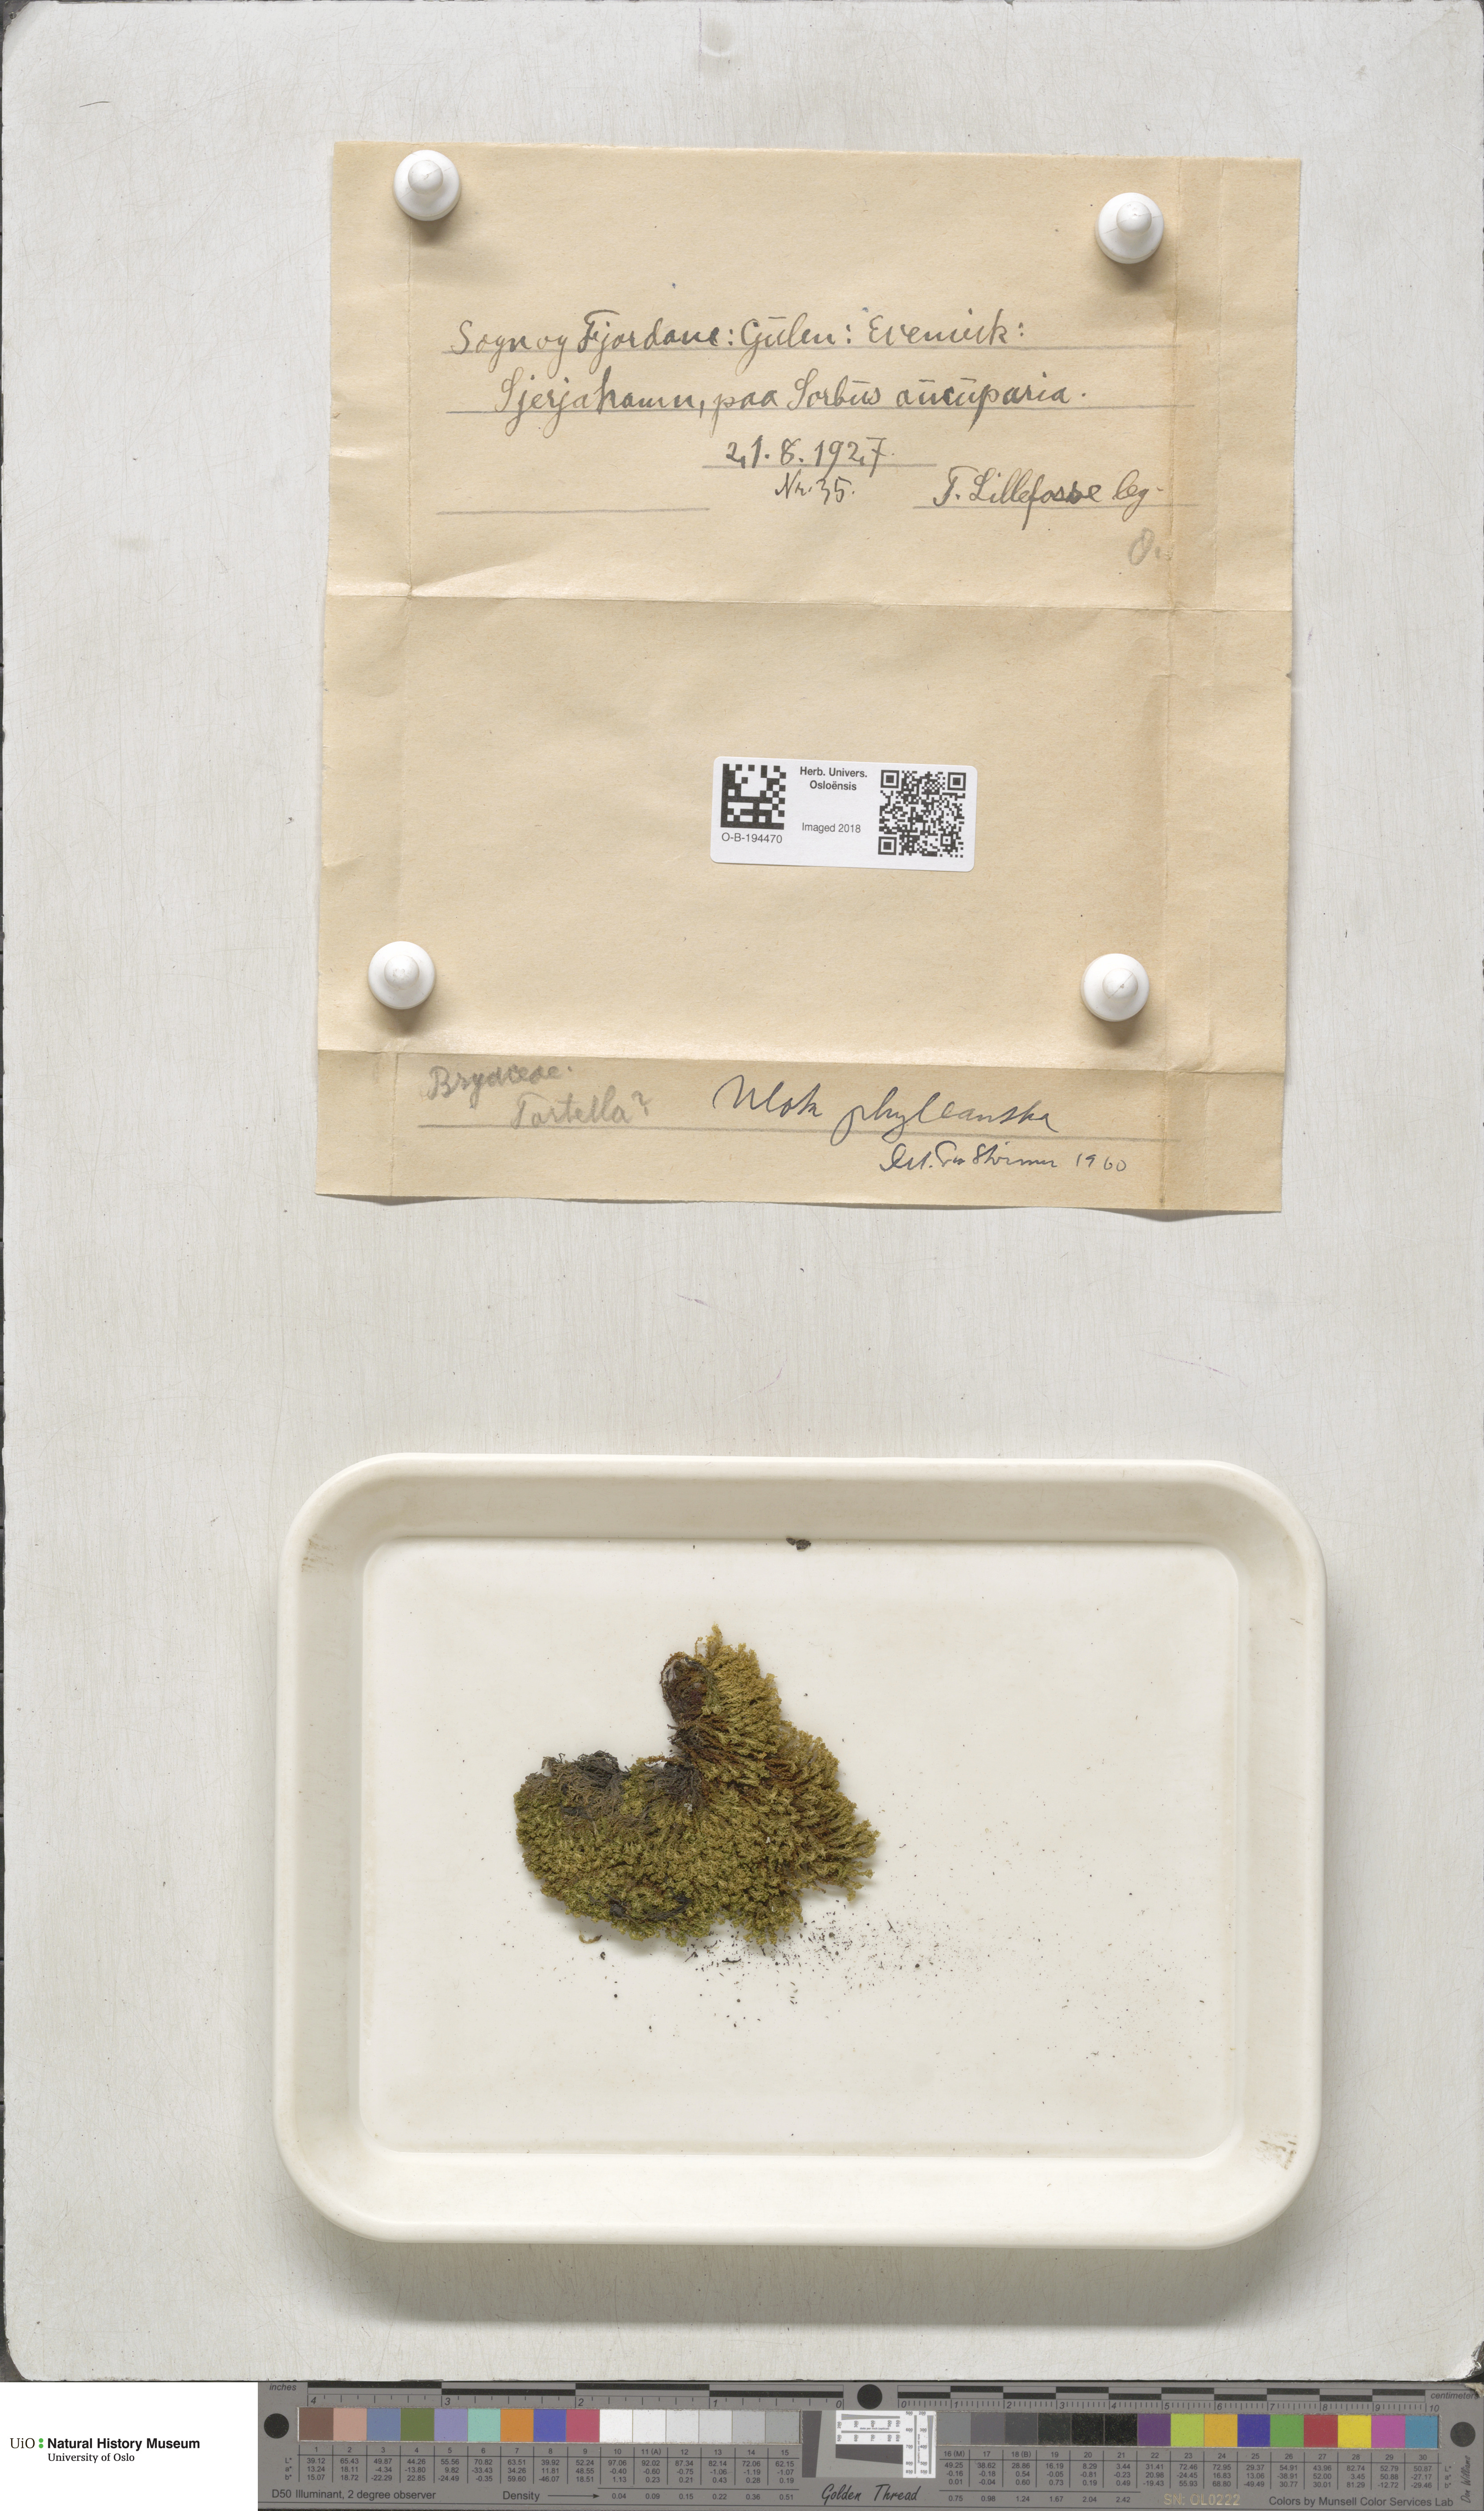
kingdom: Plantae
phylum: Bryophyta
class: Bryopsida
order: Orthotrichales
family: Orthotrichaceae
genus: Plenogemma
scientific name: Plenogemma phyllantha
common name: Frizzled pincushion
